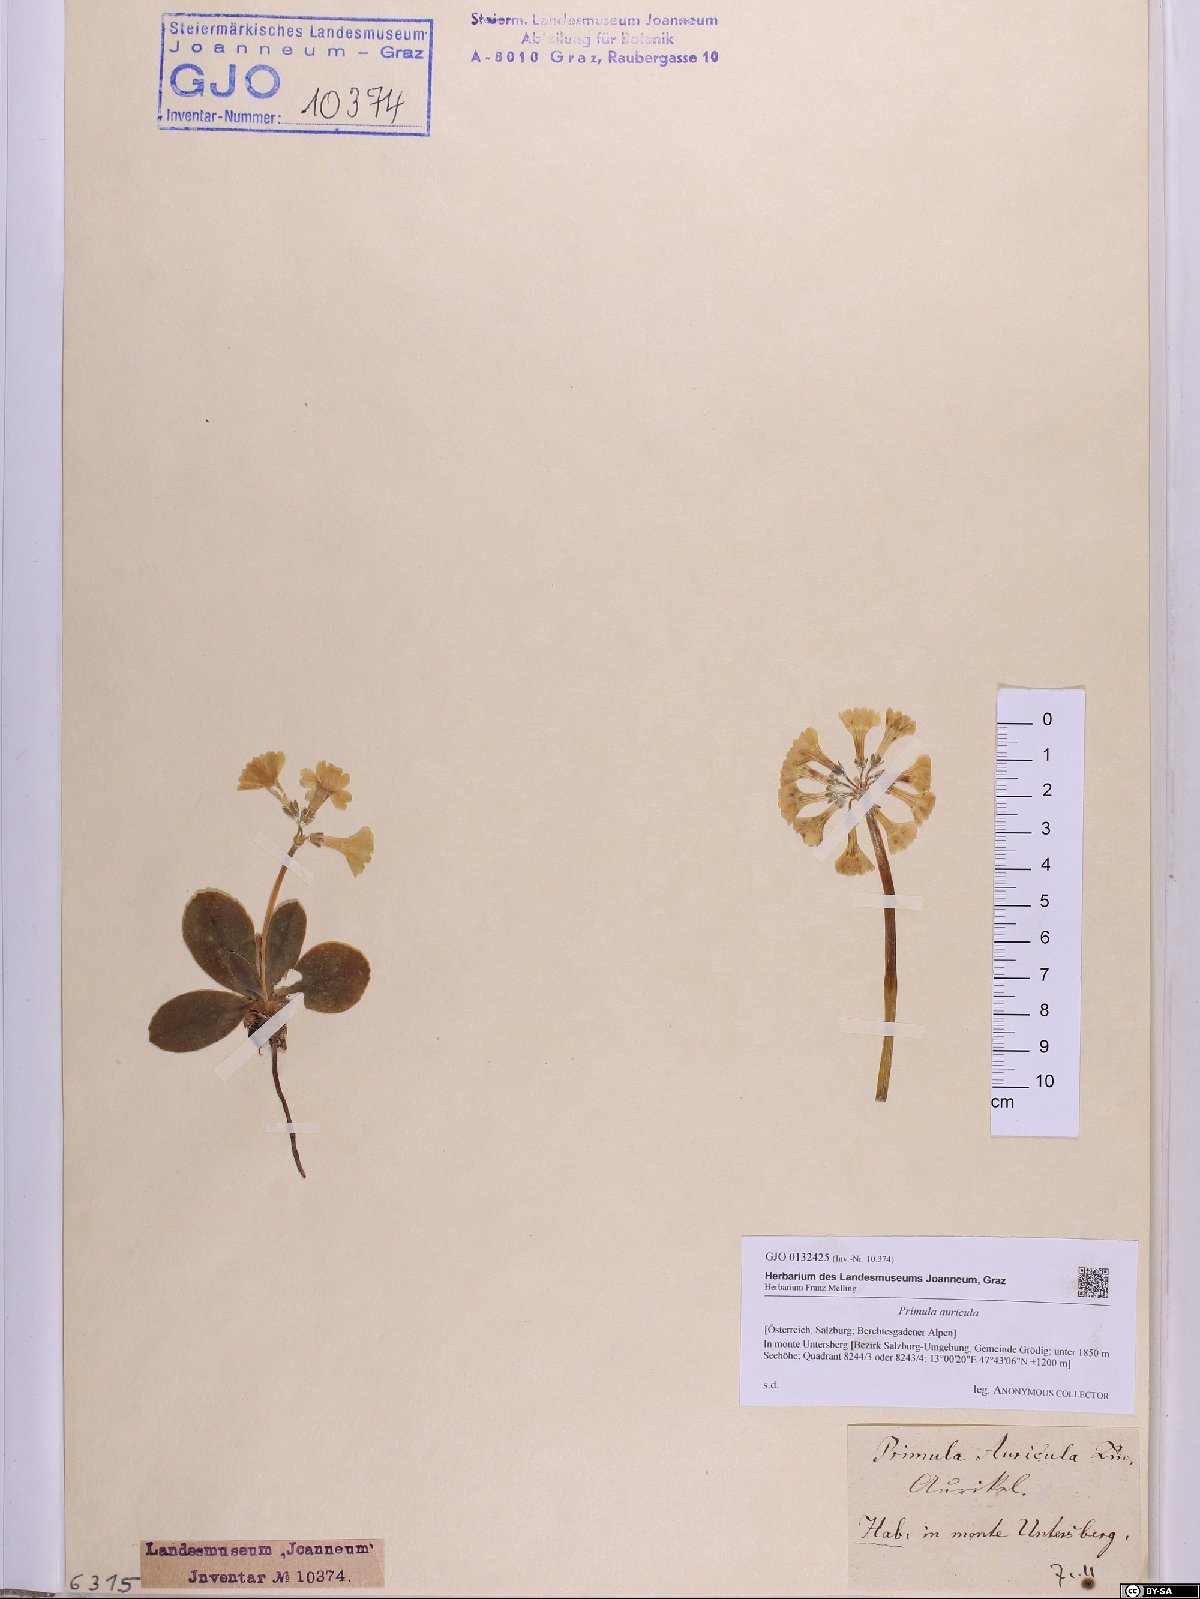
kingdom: Plantae
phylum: Tracheophyta
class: Magnoliopsida
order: Ericales
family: Primulaceae
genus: Primula
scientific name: Primula auricula
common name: Auricula
